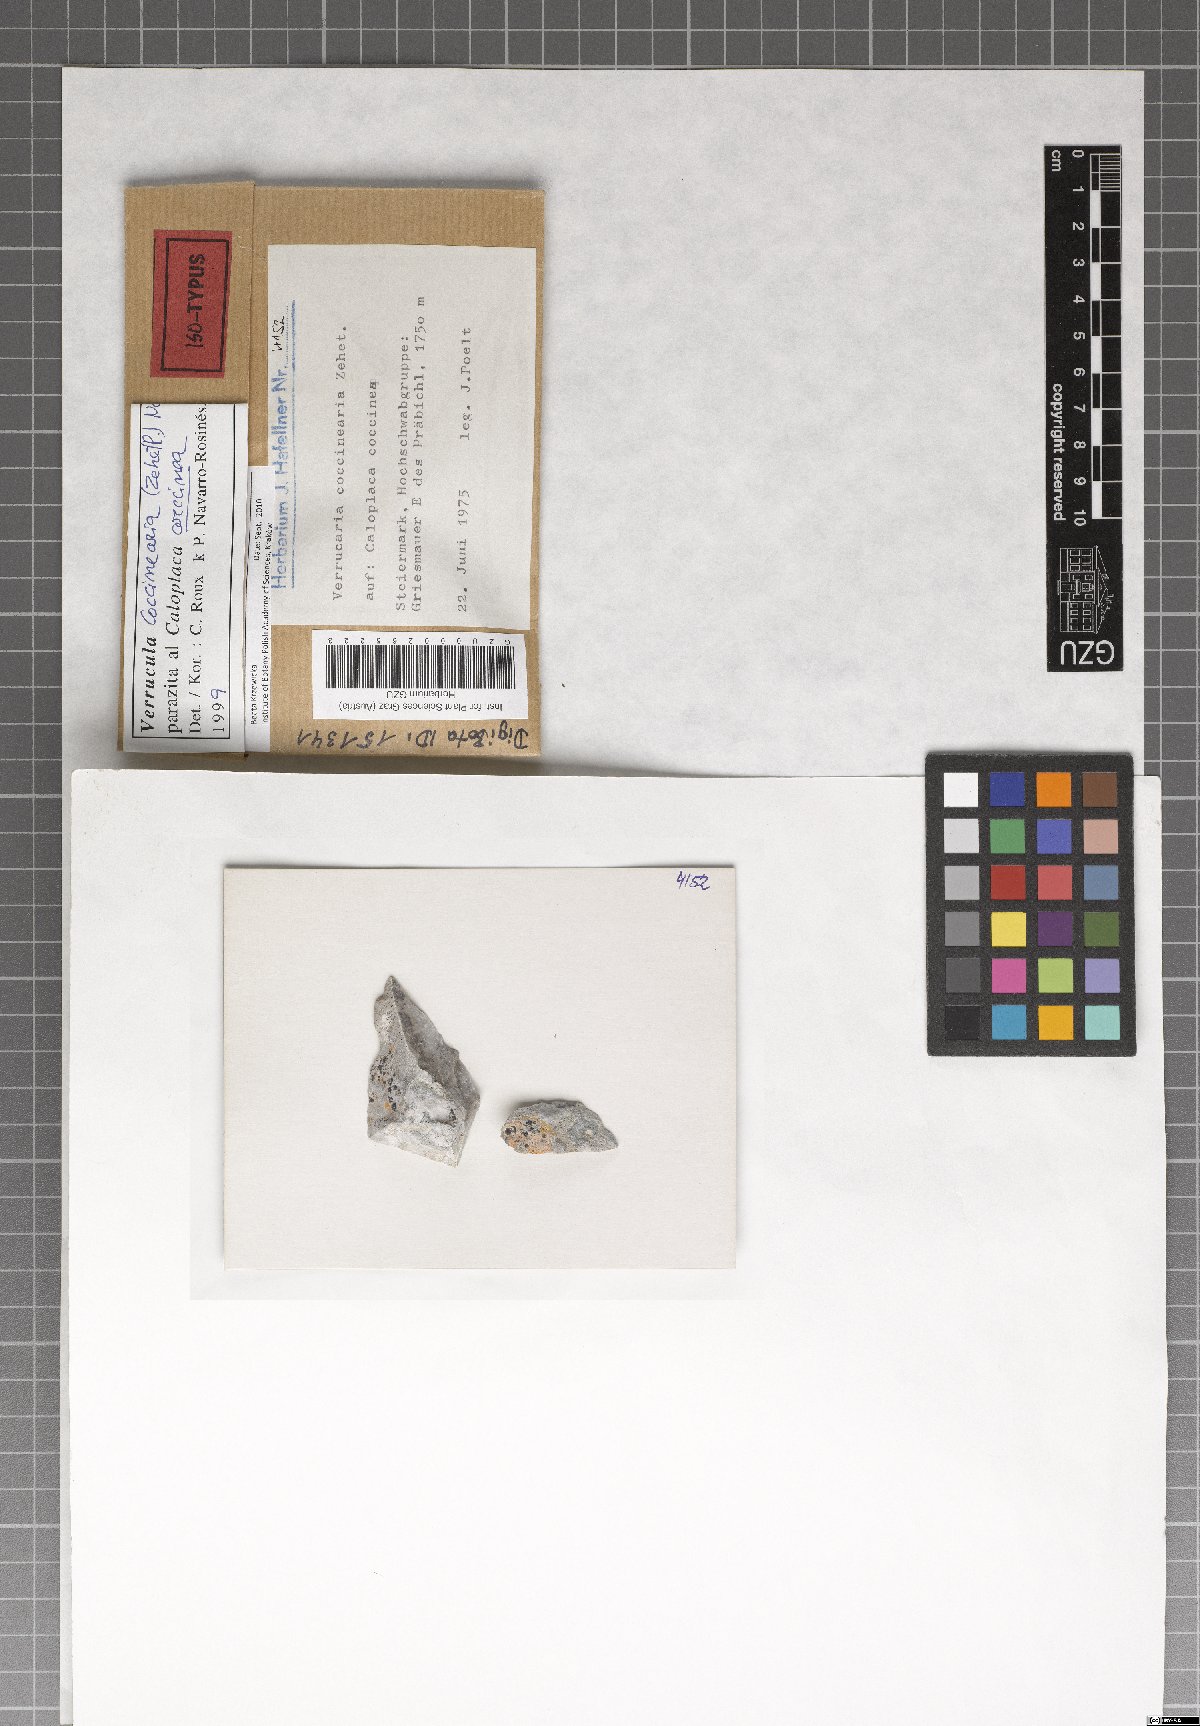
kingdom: Fungi
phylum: Ascomycota
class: Eurotiomycetes
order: Verrucariales
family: Verrucariaceae
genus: Verrucula
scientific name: Verrucula coccinearia
